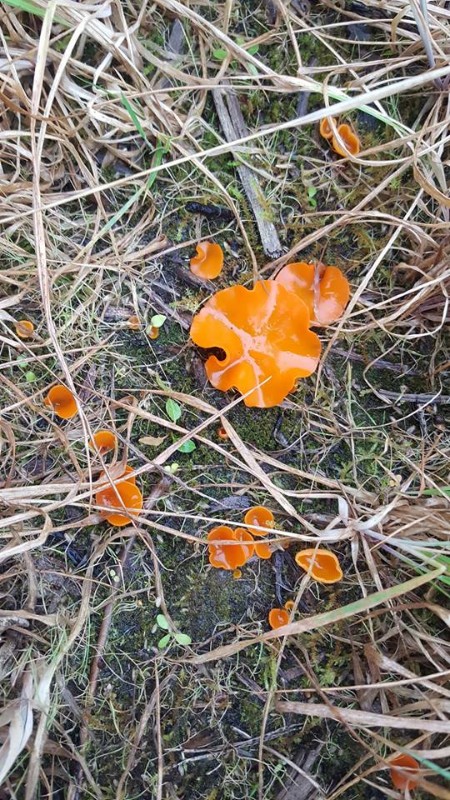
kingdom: Fungi
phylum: Ascomycota
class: Pezizomycetes
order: Pezizales
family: Pyronemataceae
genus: Aleuria
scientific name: Aleuria aurantia
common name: almindelig orangebæger
